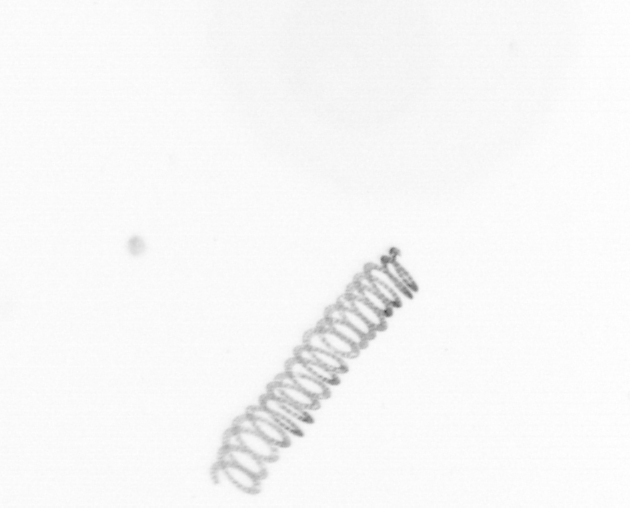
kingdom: Chromista
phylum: Ochrophyta
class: Bacillariophyceae
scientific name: Bacillariophyceae
